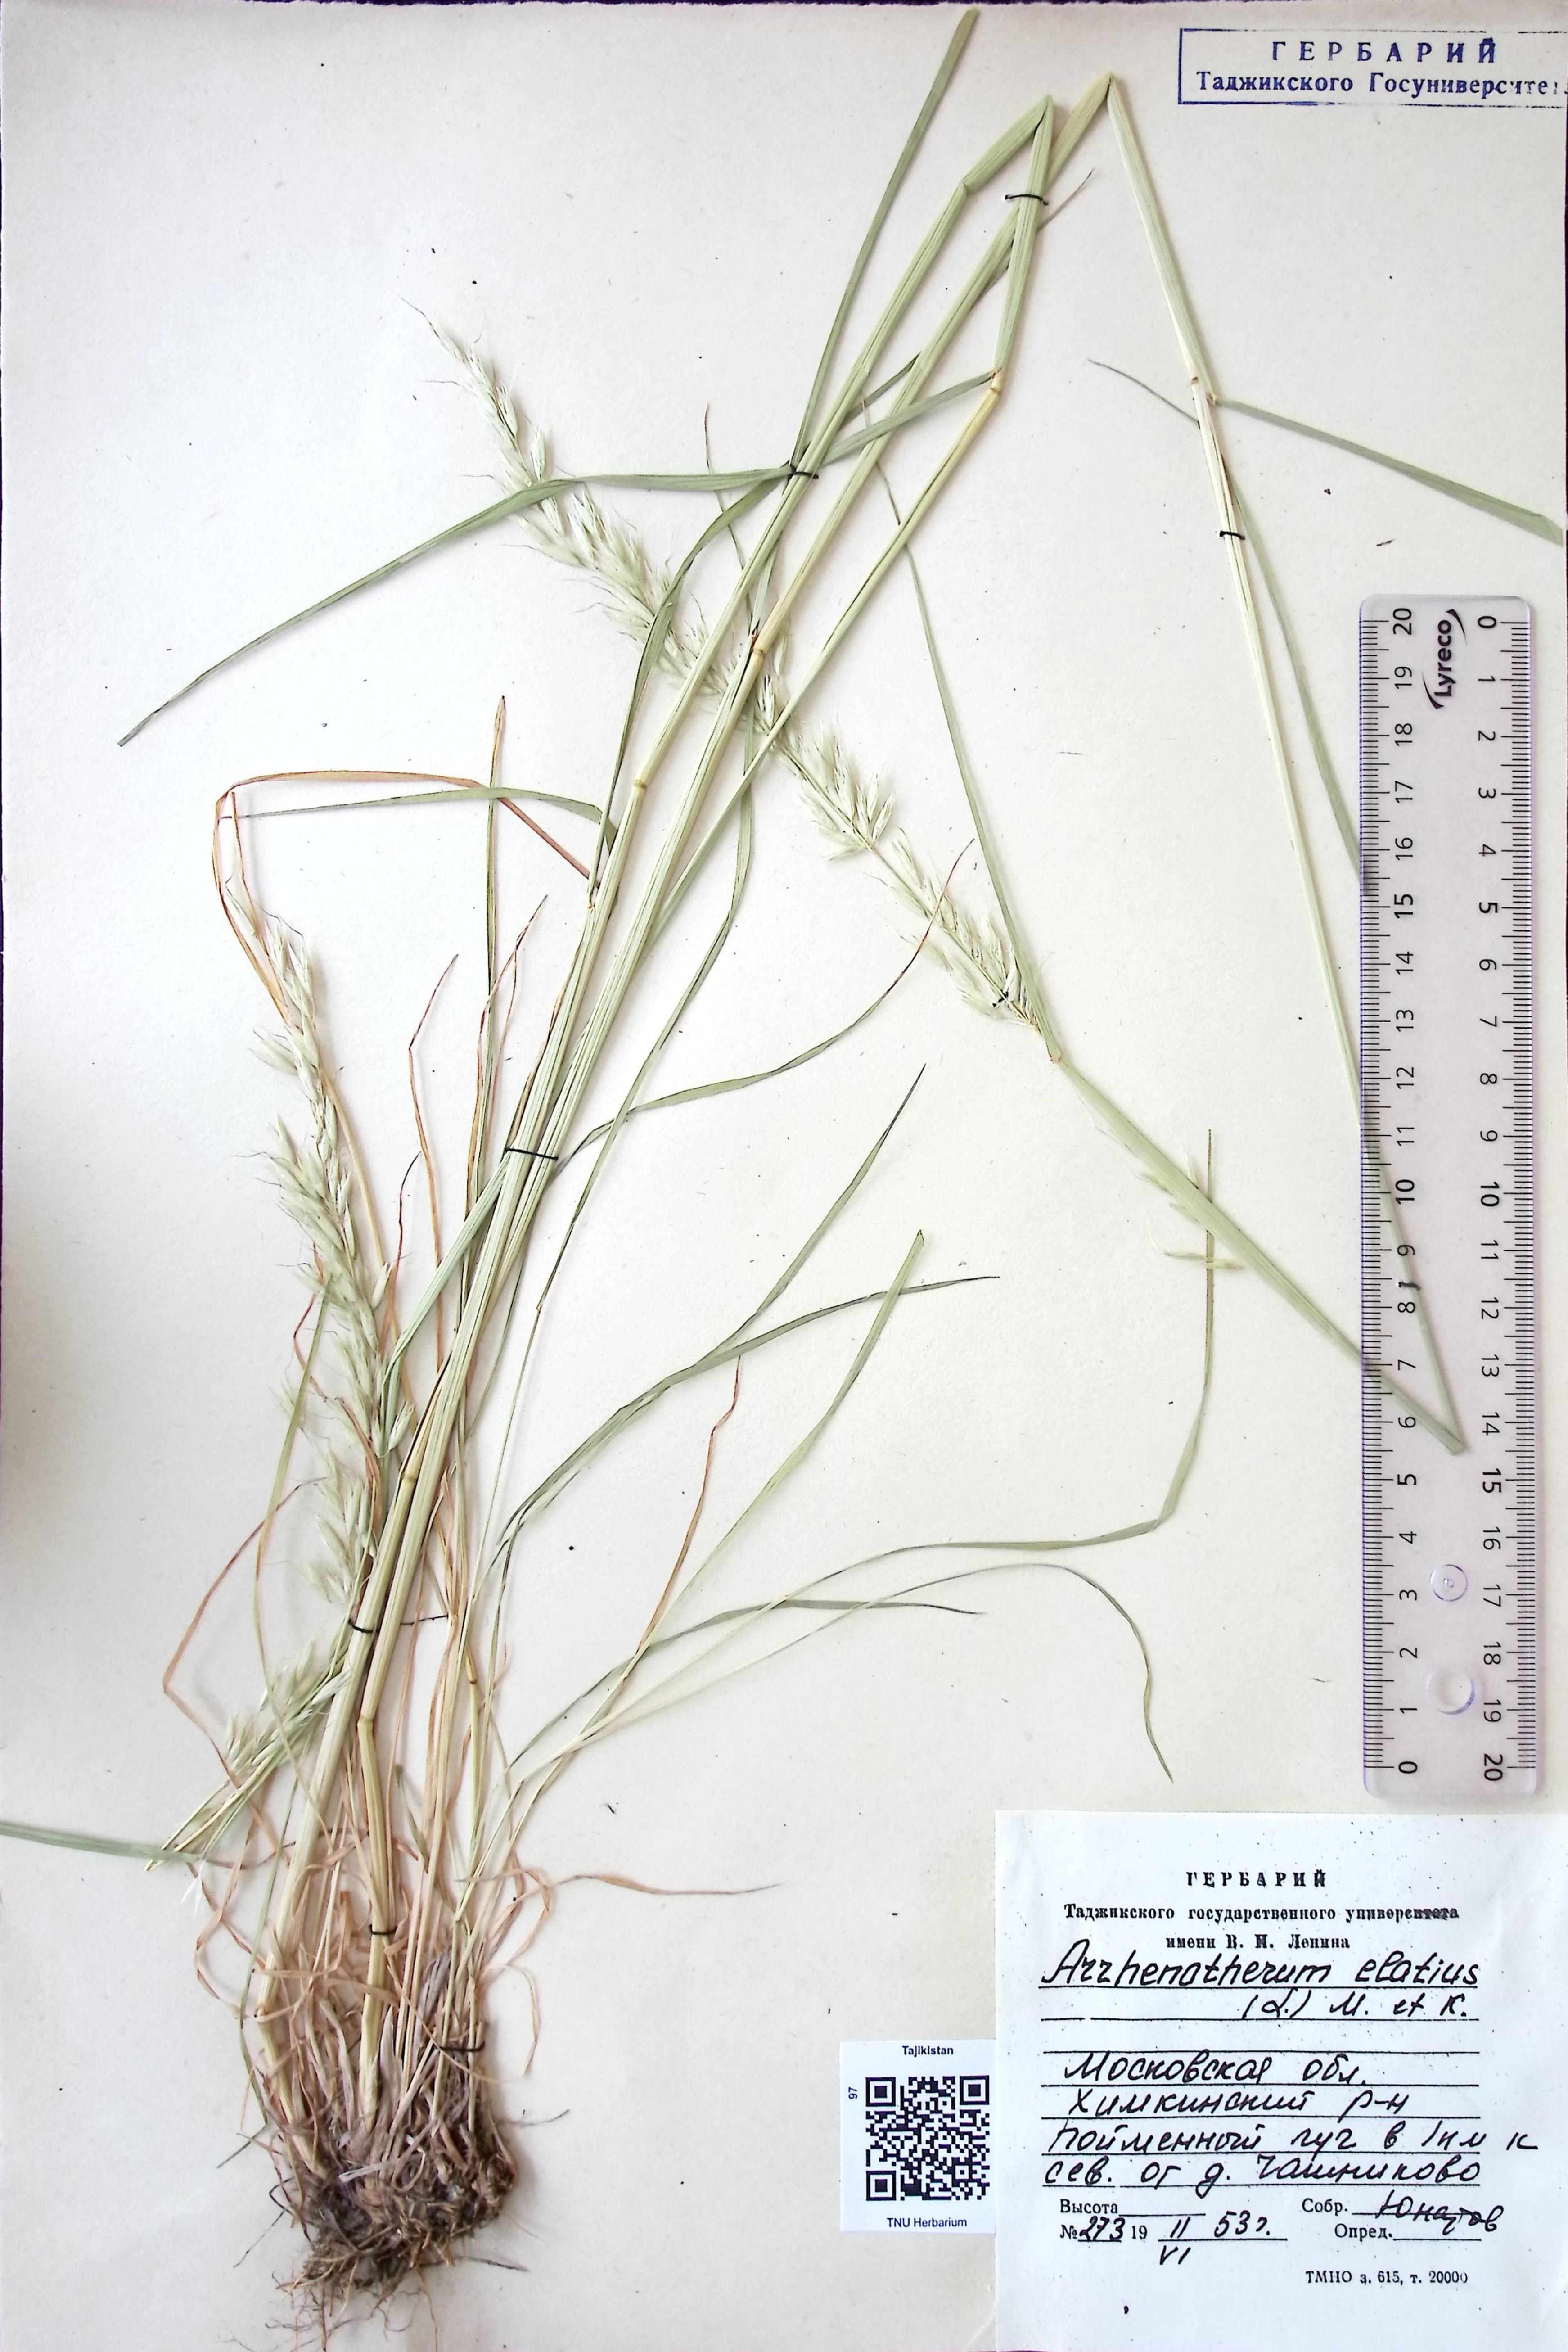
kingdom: Plantae
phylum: Tracheophyta
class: Liliopsida
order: Poales
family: Poaceae
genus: Arrhenatherum
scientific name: Arrhenatherum elatius
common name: Tall oatgrass
